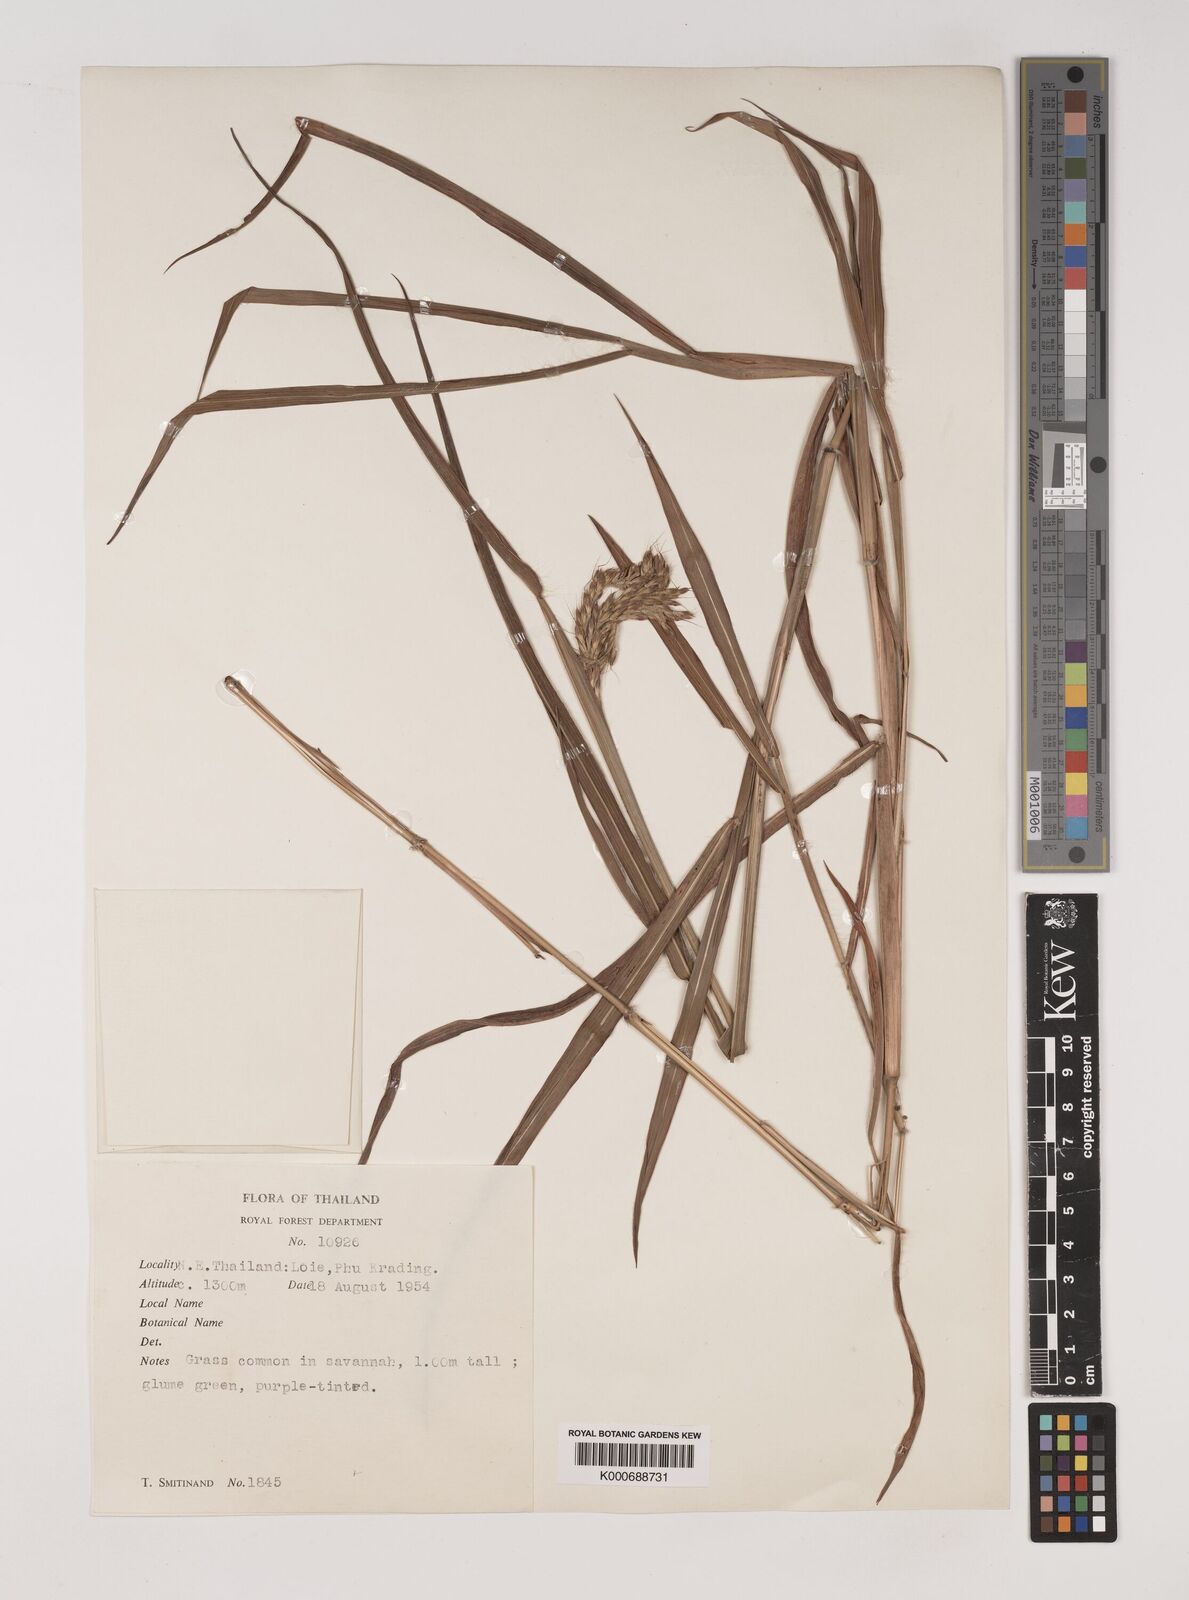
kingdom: Plantae
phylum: Tracheophyta
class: Liliopsida
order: Poales
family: Poaceae
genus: Polytrias
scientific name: Polytrias indica
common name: Indian murainagrass
